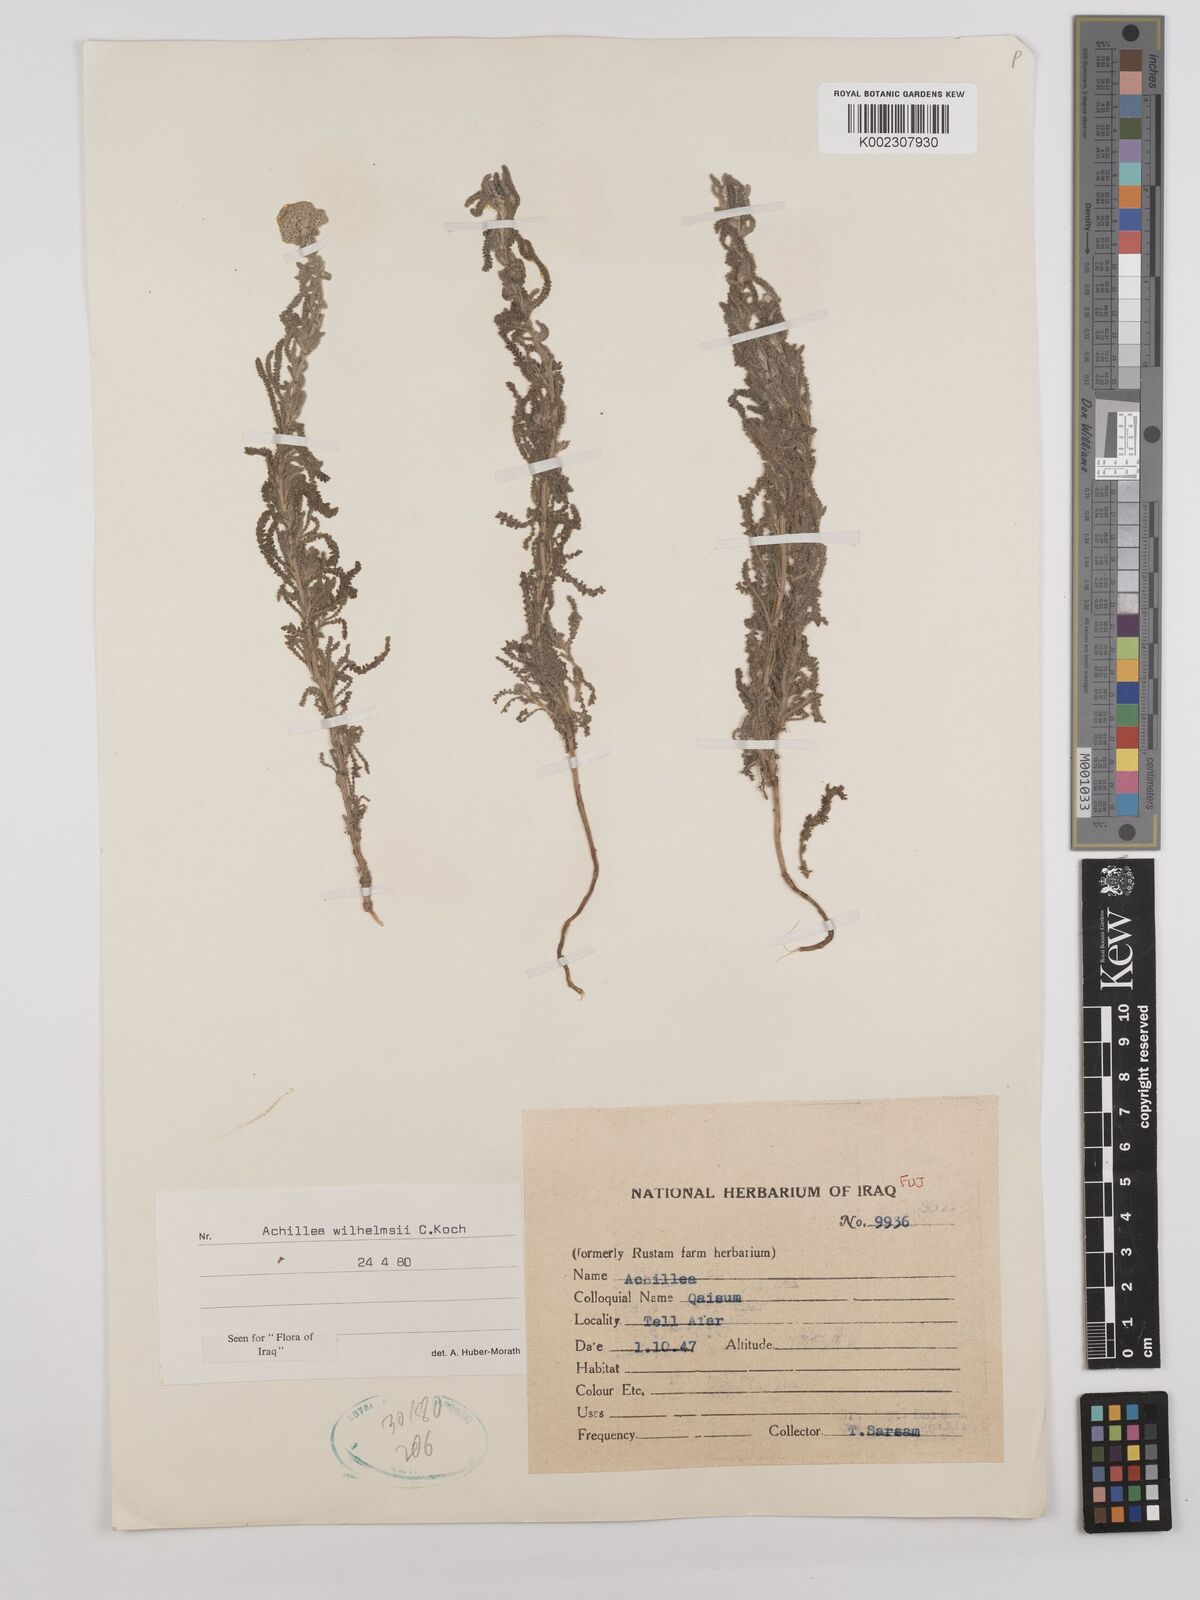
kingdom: Plantae
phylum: Tracheophyta
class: Magnoliopsida
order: Asterales
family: Asteraceae
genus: Achillea
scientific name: Achillea wilhelmsii
